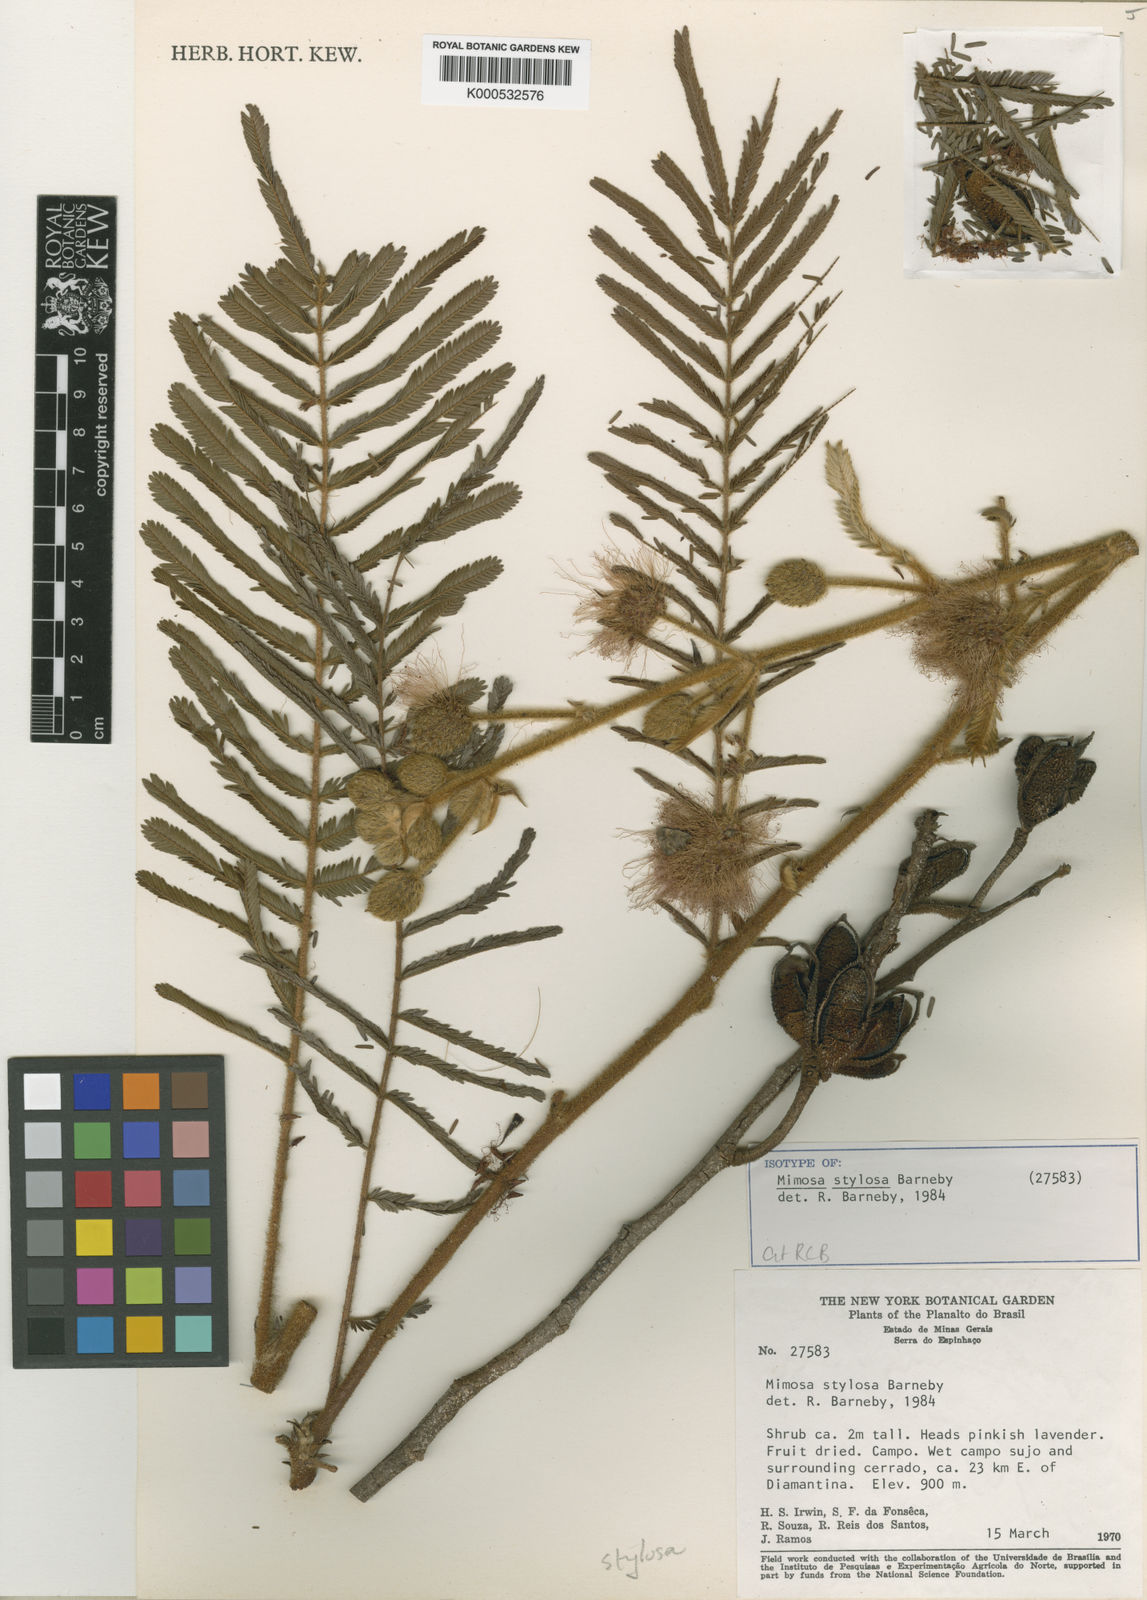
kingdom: Plantae
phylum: Tracheophyta
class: Magnoliopsida
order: Fabales
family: Fabaceae
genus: Mimosa
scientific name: Mimosa stylosa
